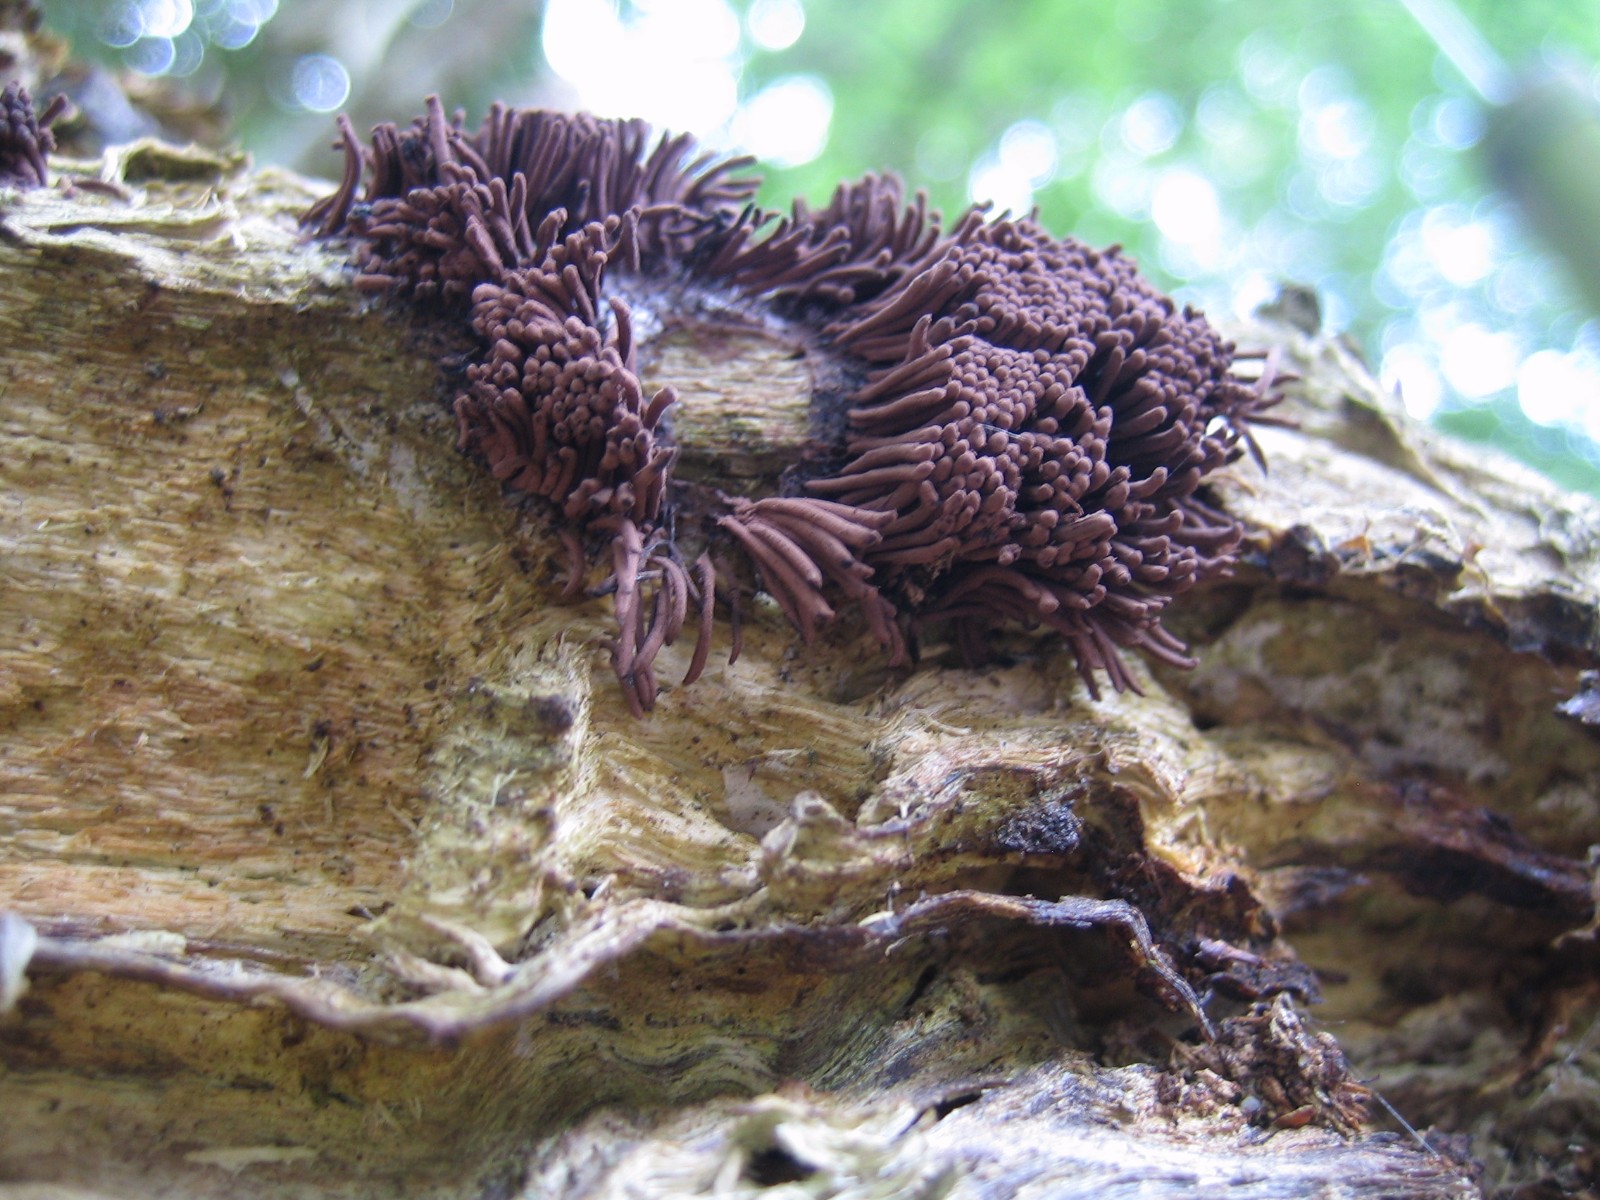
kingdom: Protozoa
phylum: Mycetozoa
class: Myxomycetes
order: Stemonitidales
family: Stemonitidaceae
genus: Stemonitis
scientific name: Stemonitis axifera
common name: rødbrun støvkølle
